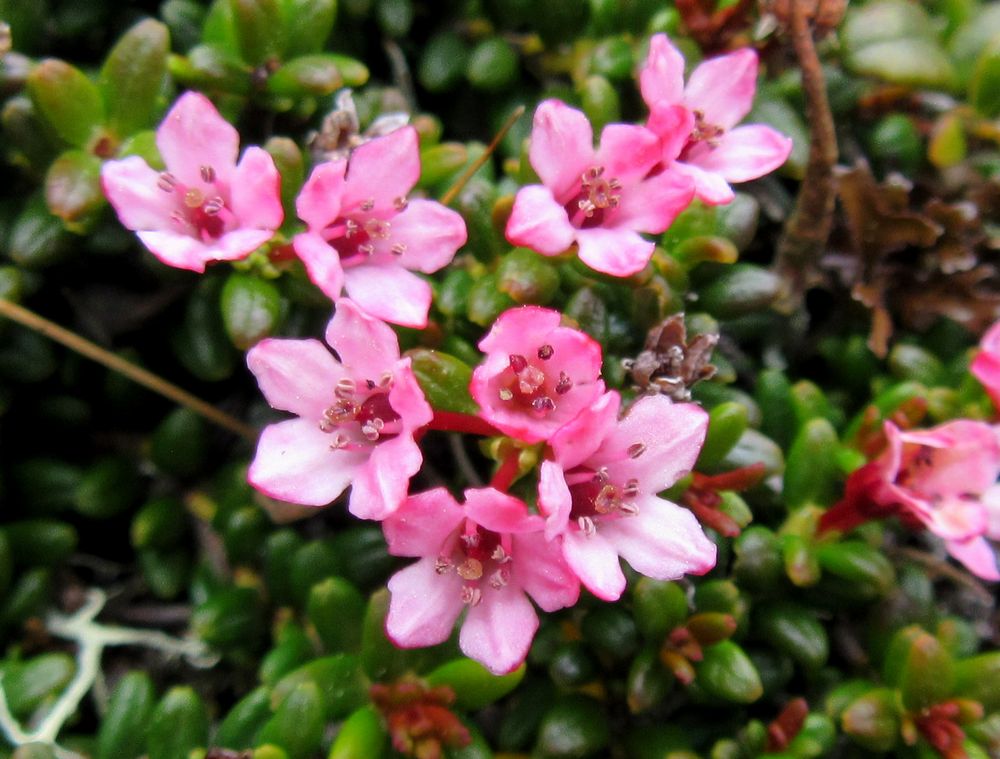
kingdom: Plantae
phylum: Tracheophyta
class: Magnoliopsida
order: Ericales
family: Ericaceae
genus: Kalmia
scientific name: Kalmia procumbens
